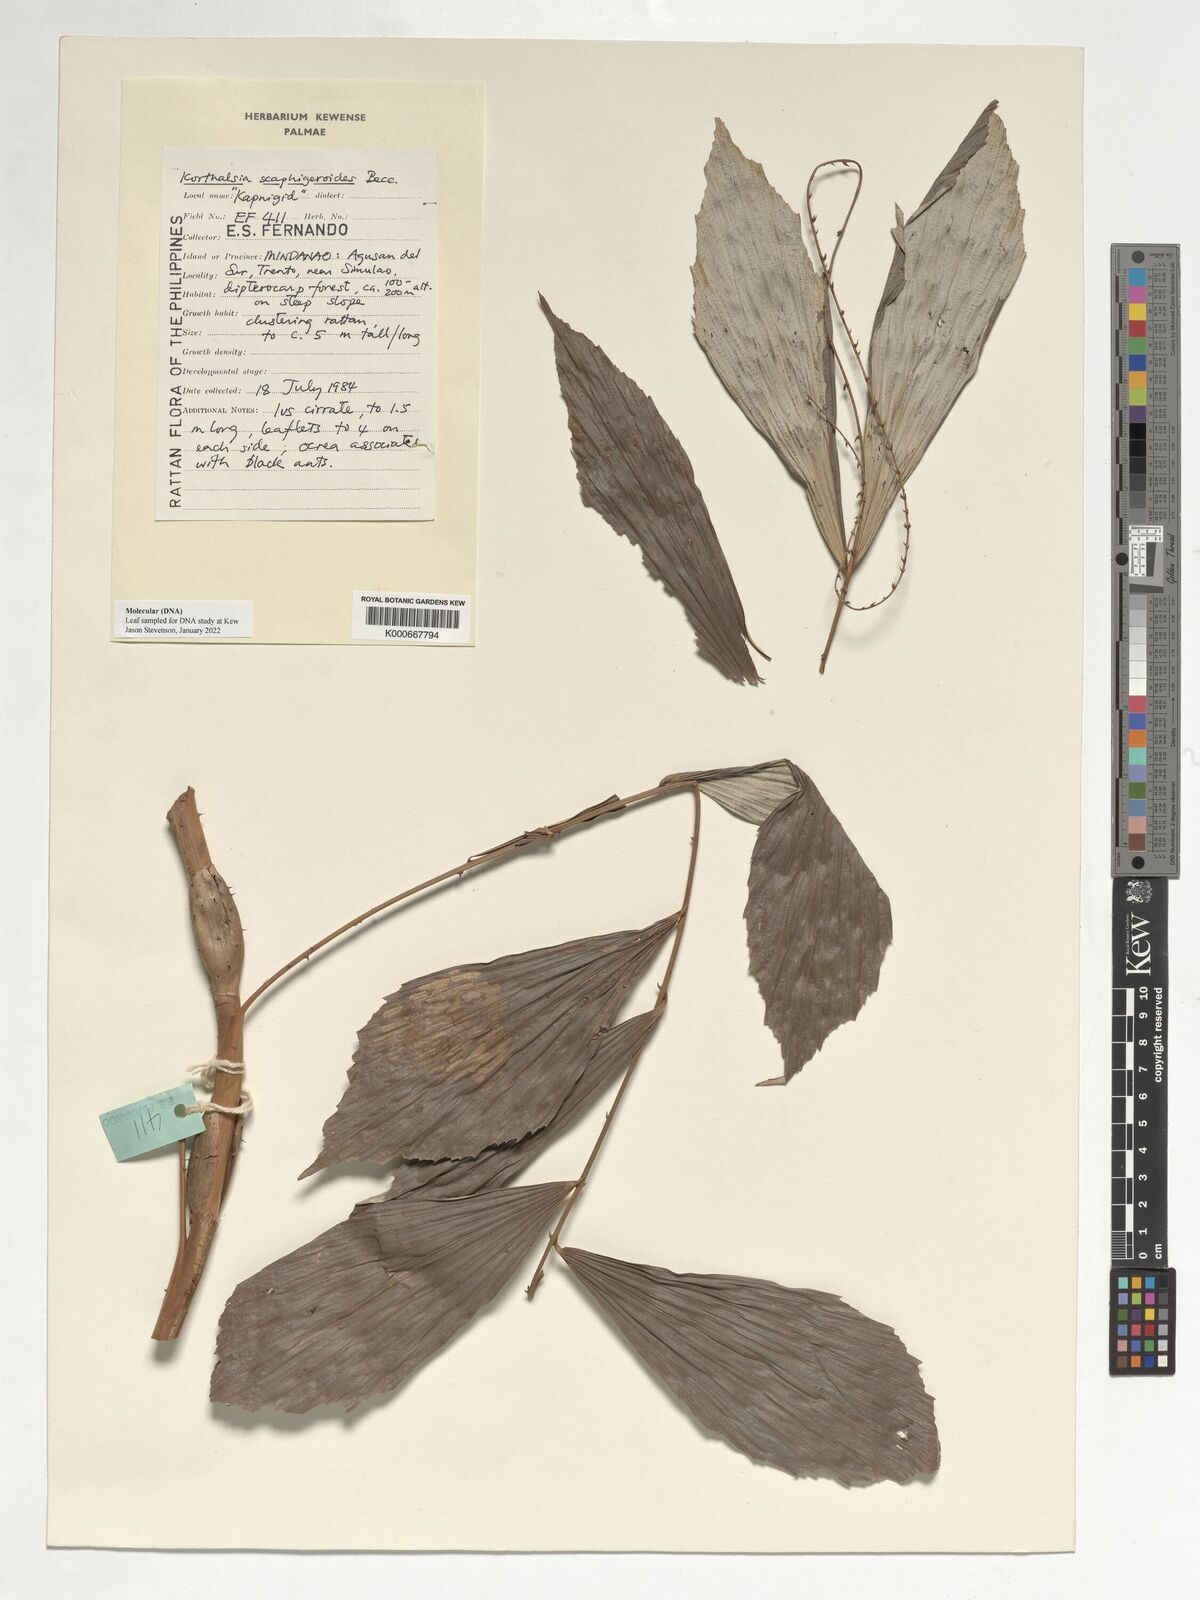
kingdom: Plantae
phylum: Tracheophyta
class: Liliopsida
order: Arecales
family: Arecaceae
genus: Korthalsia
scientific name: Korthalsia scaphigeroides
